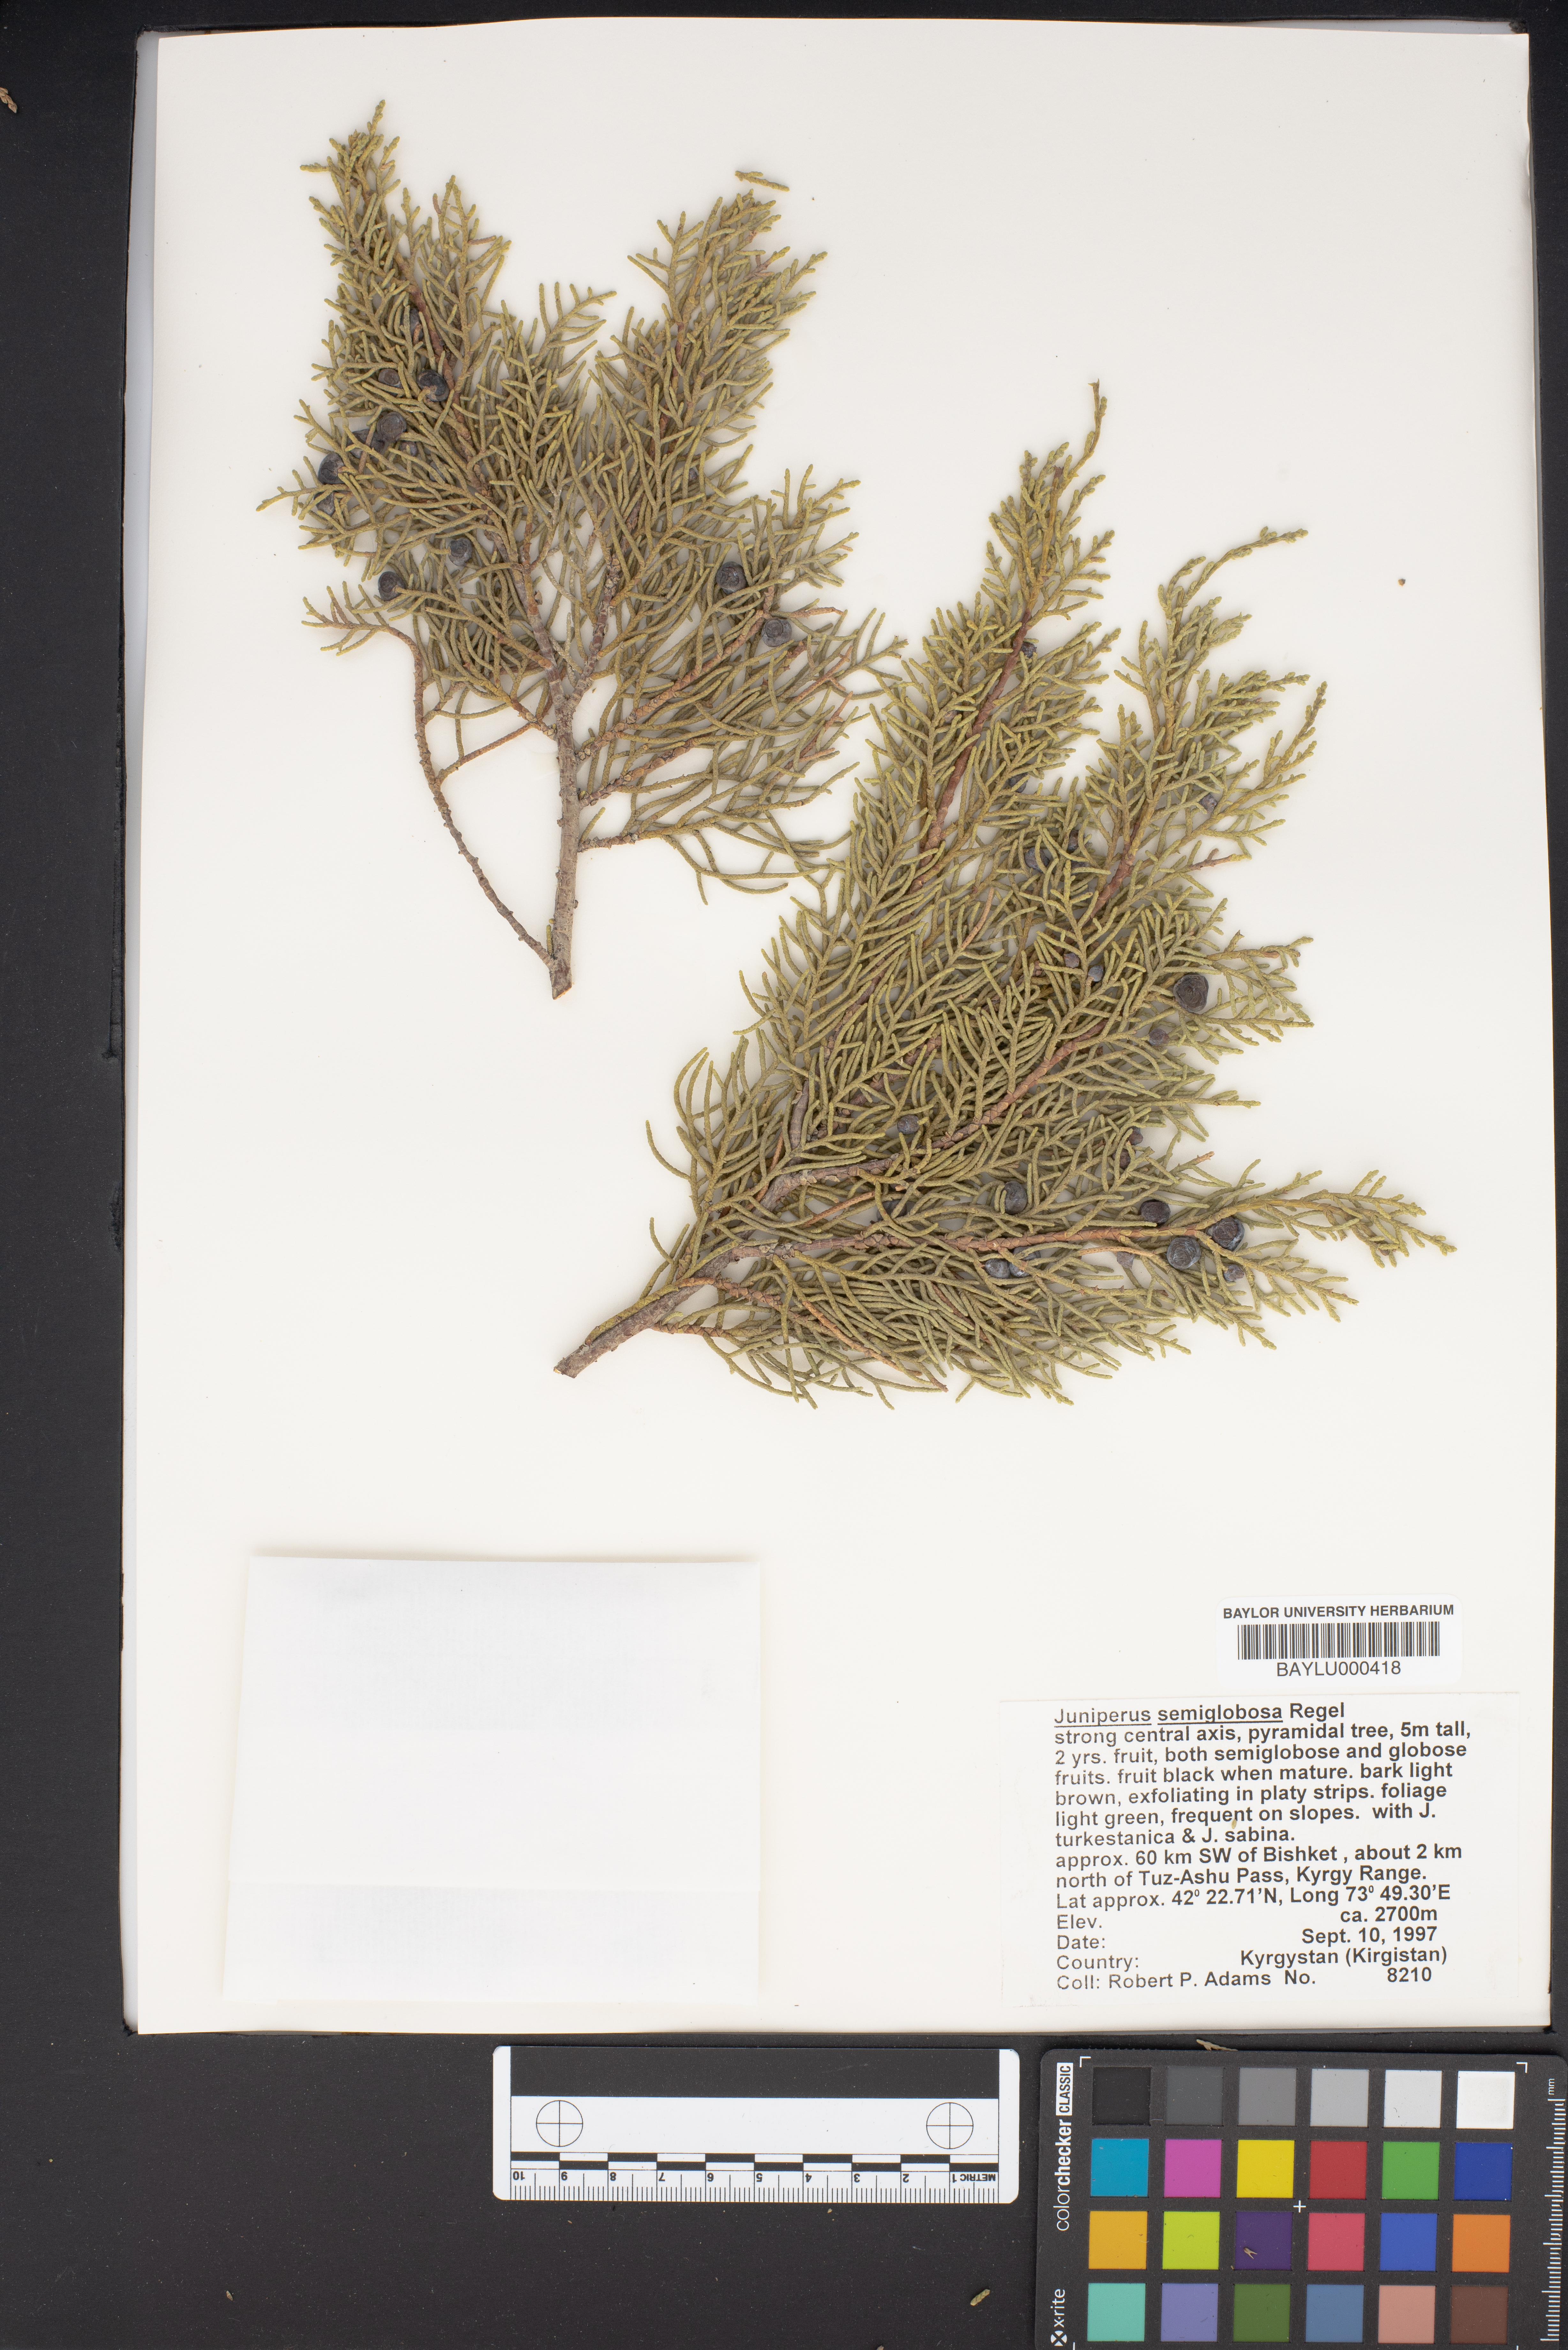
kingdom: Plantae
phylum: Tracheophyta
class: Pinopsida
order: Pinales
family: Cupressaceae
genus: Juniperus
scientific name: Juniperus semiglobosa
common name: Pencil cedar
